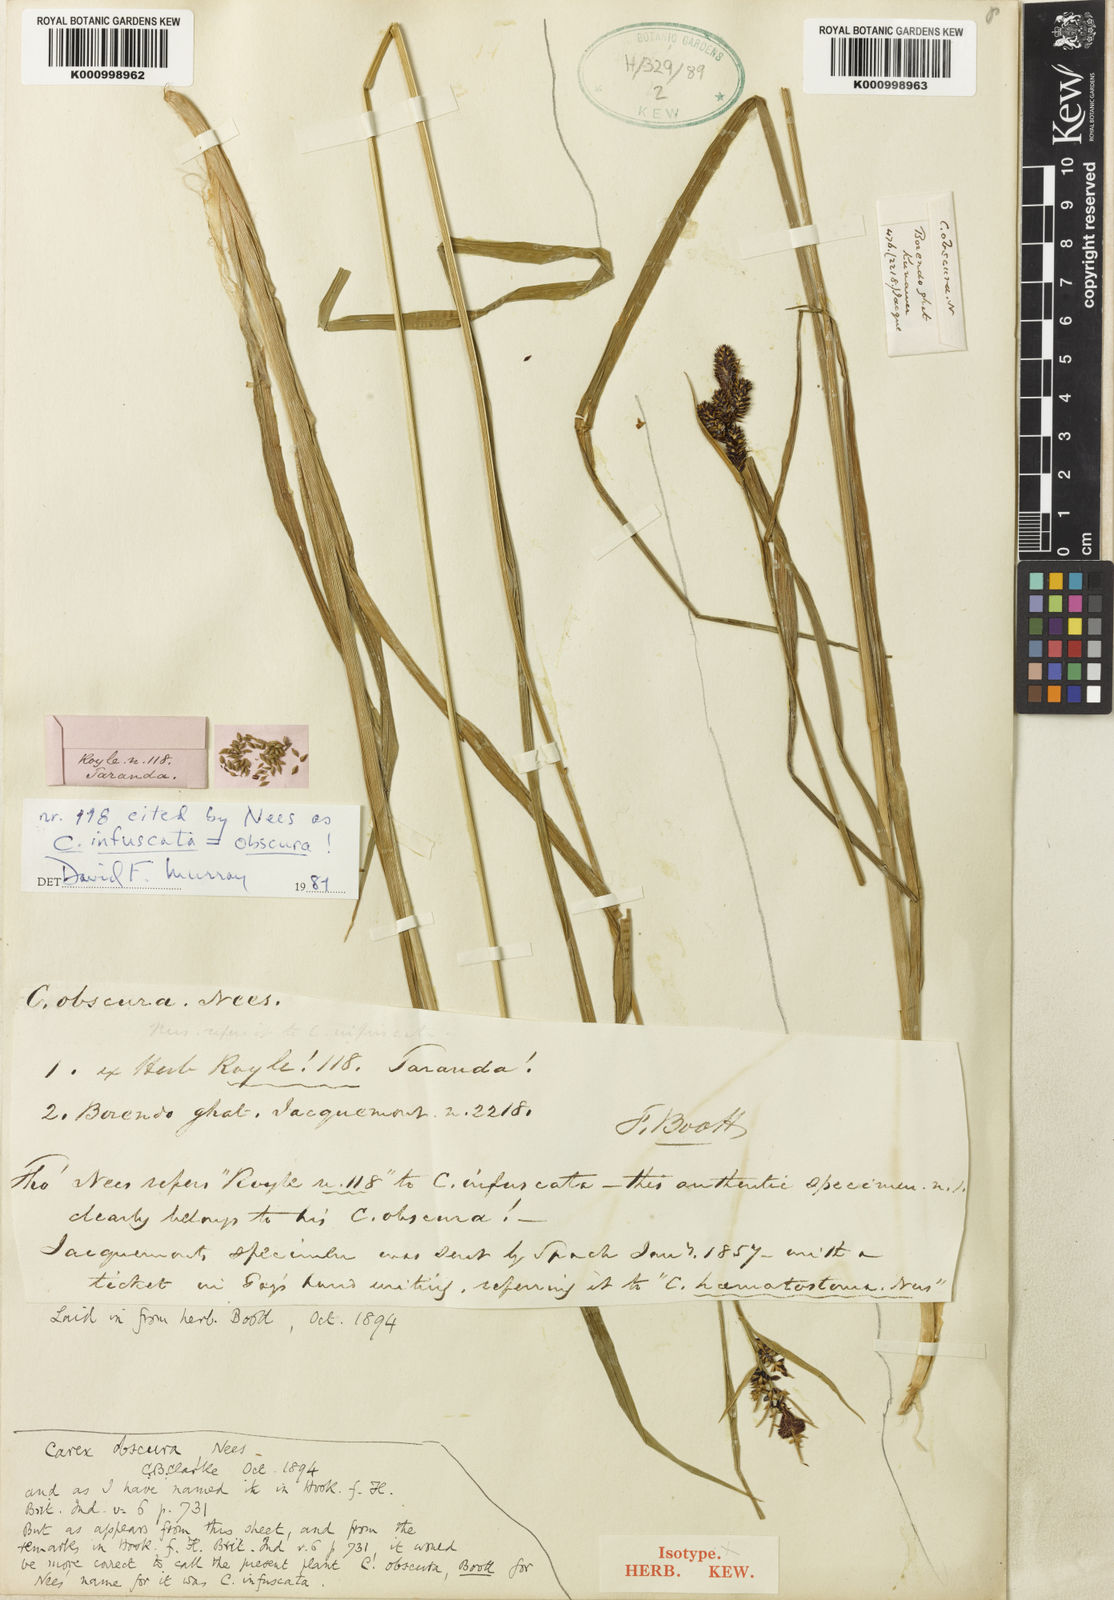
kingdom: Plantae
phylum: Tracheophyta
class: Liliopsida
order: Poales
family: Cyperaceae
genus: Carex
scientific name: Carex norvegica
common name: Close-headed alpine-sedge
